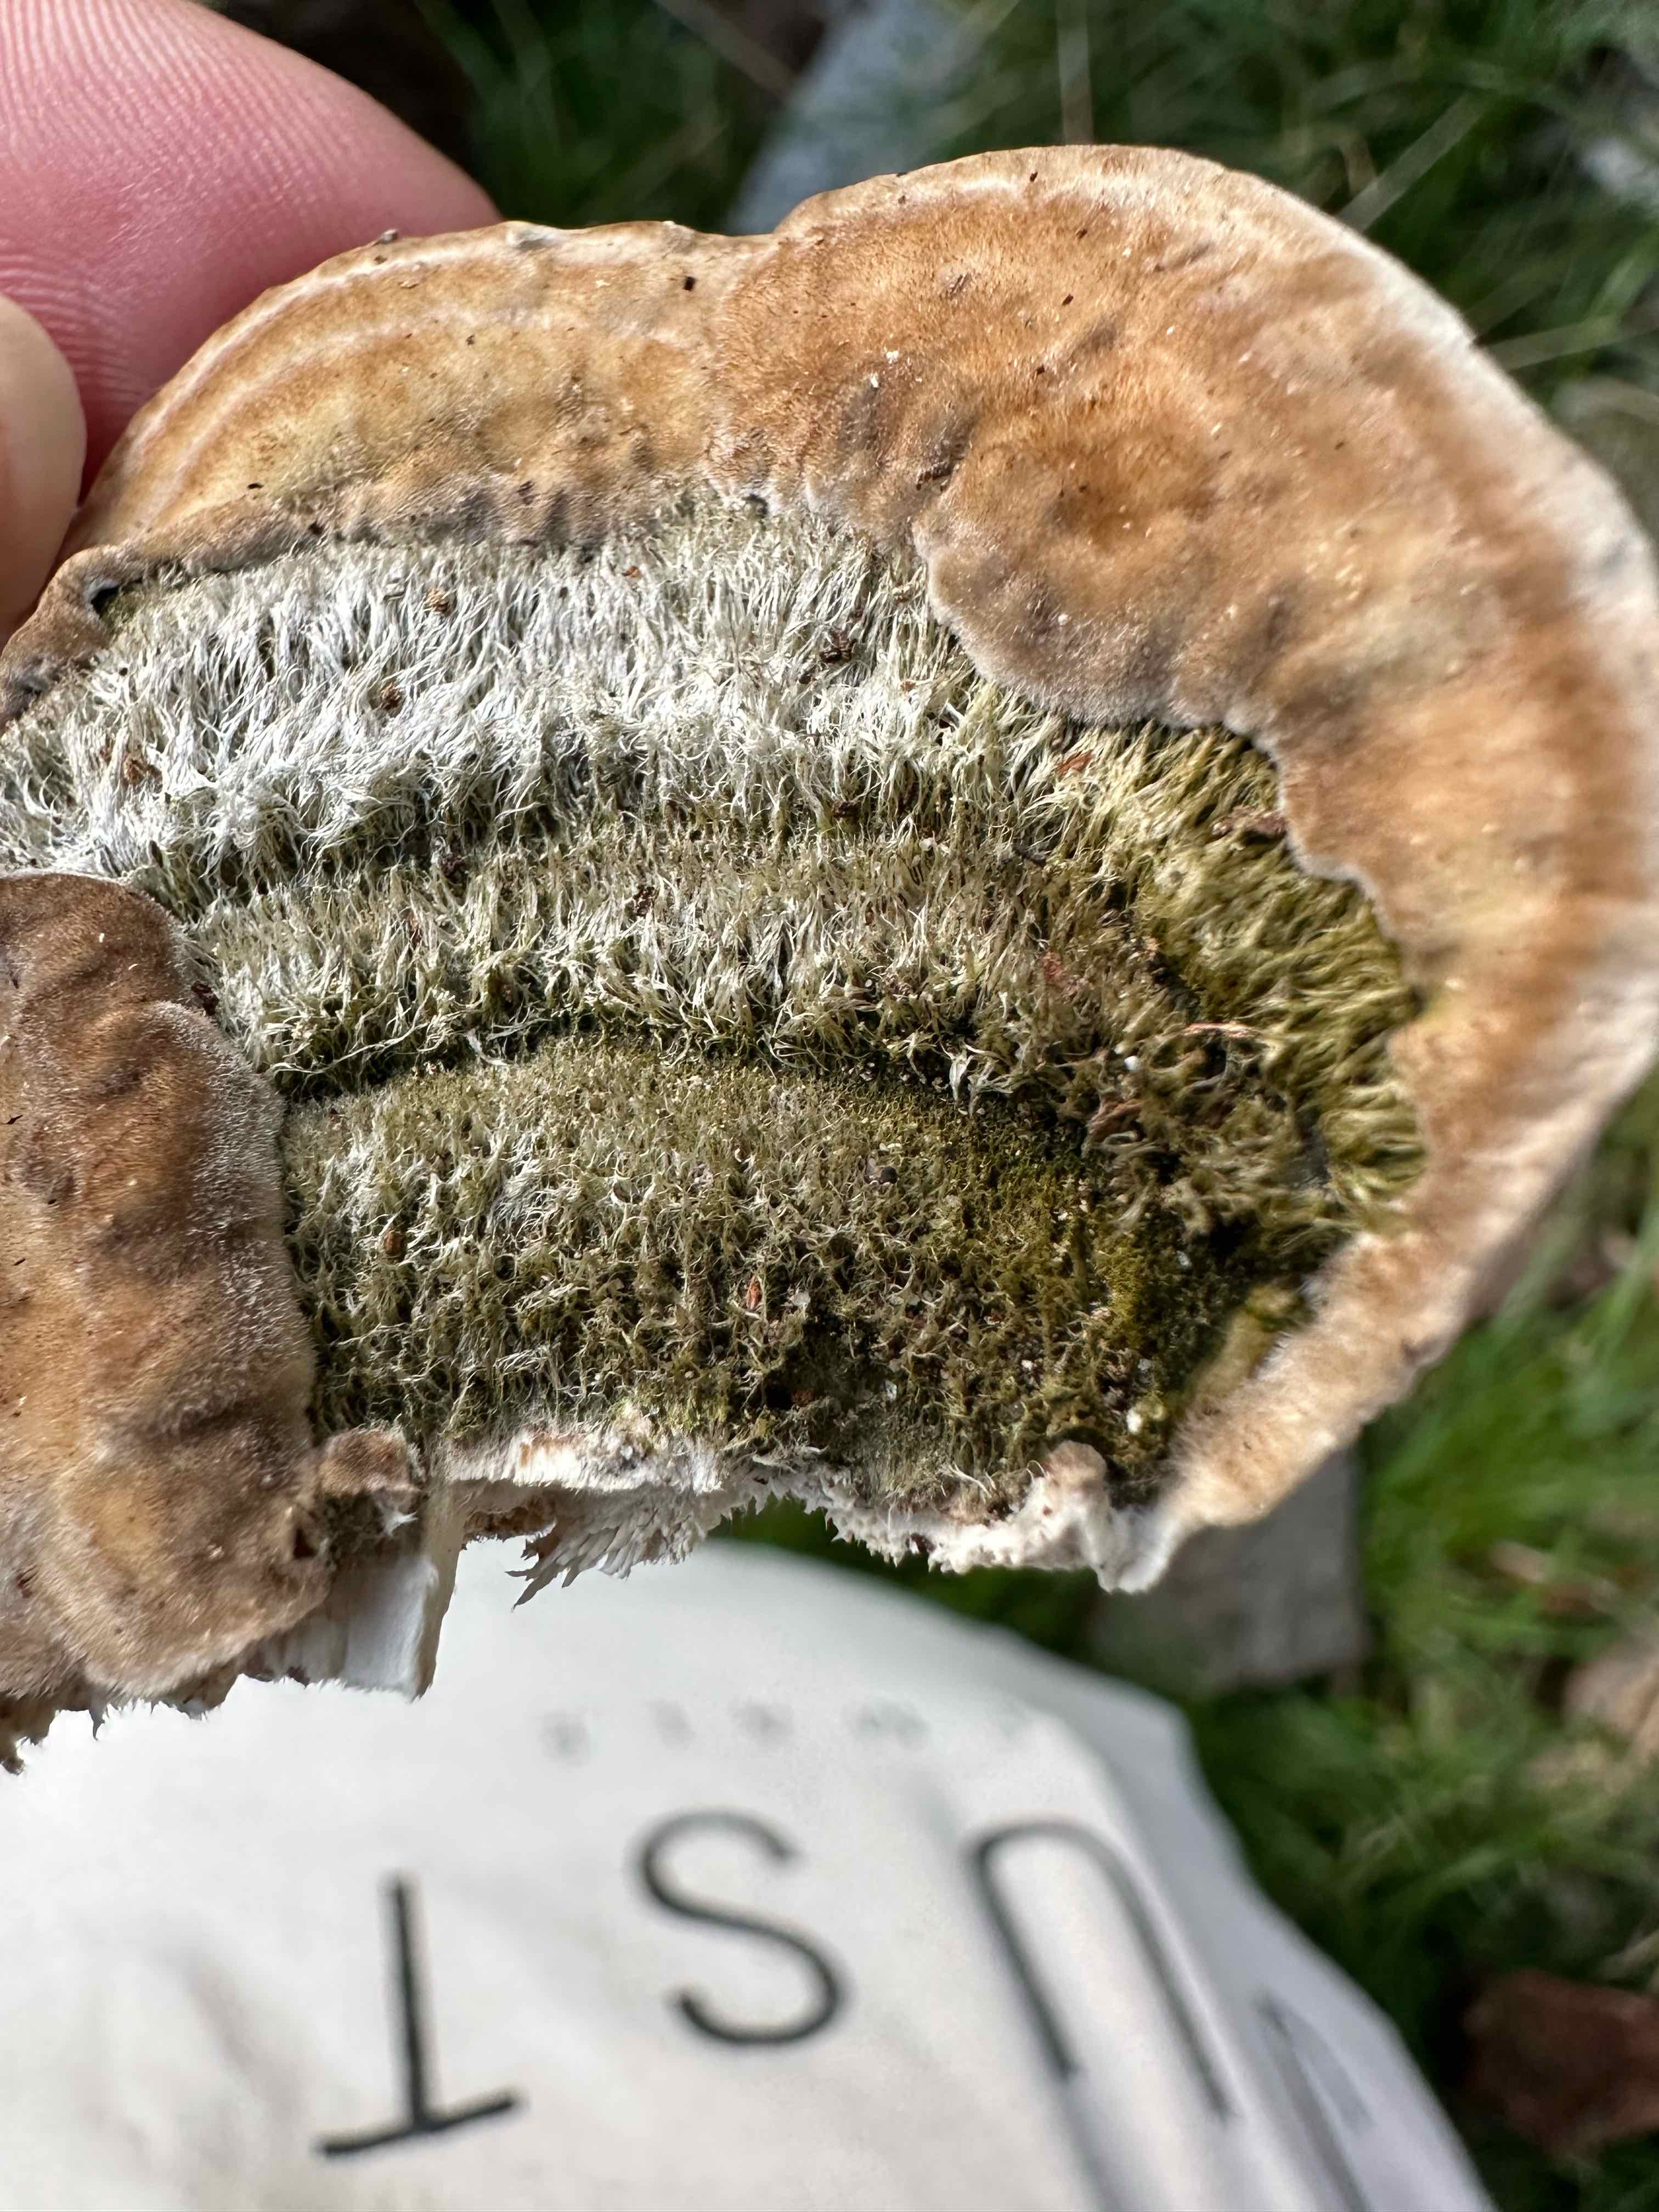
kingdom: Fungi
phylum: Basidiomycota
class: Agaricomycetes
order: Polyporales
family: Polyporaceae
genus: Trametes
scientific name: Trametes hirsuta
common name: håret læderporesvamp
